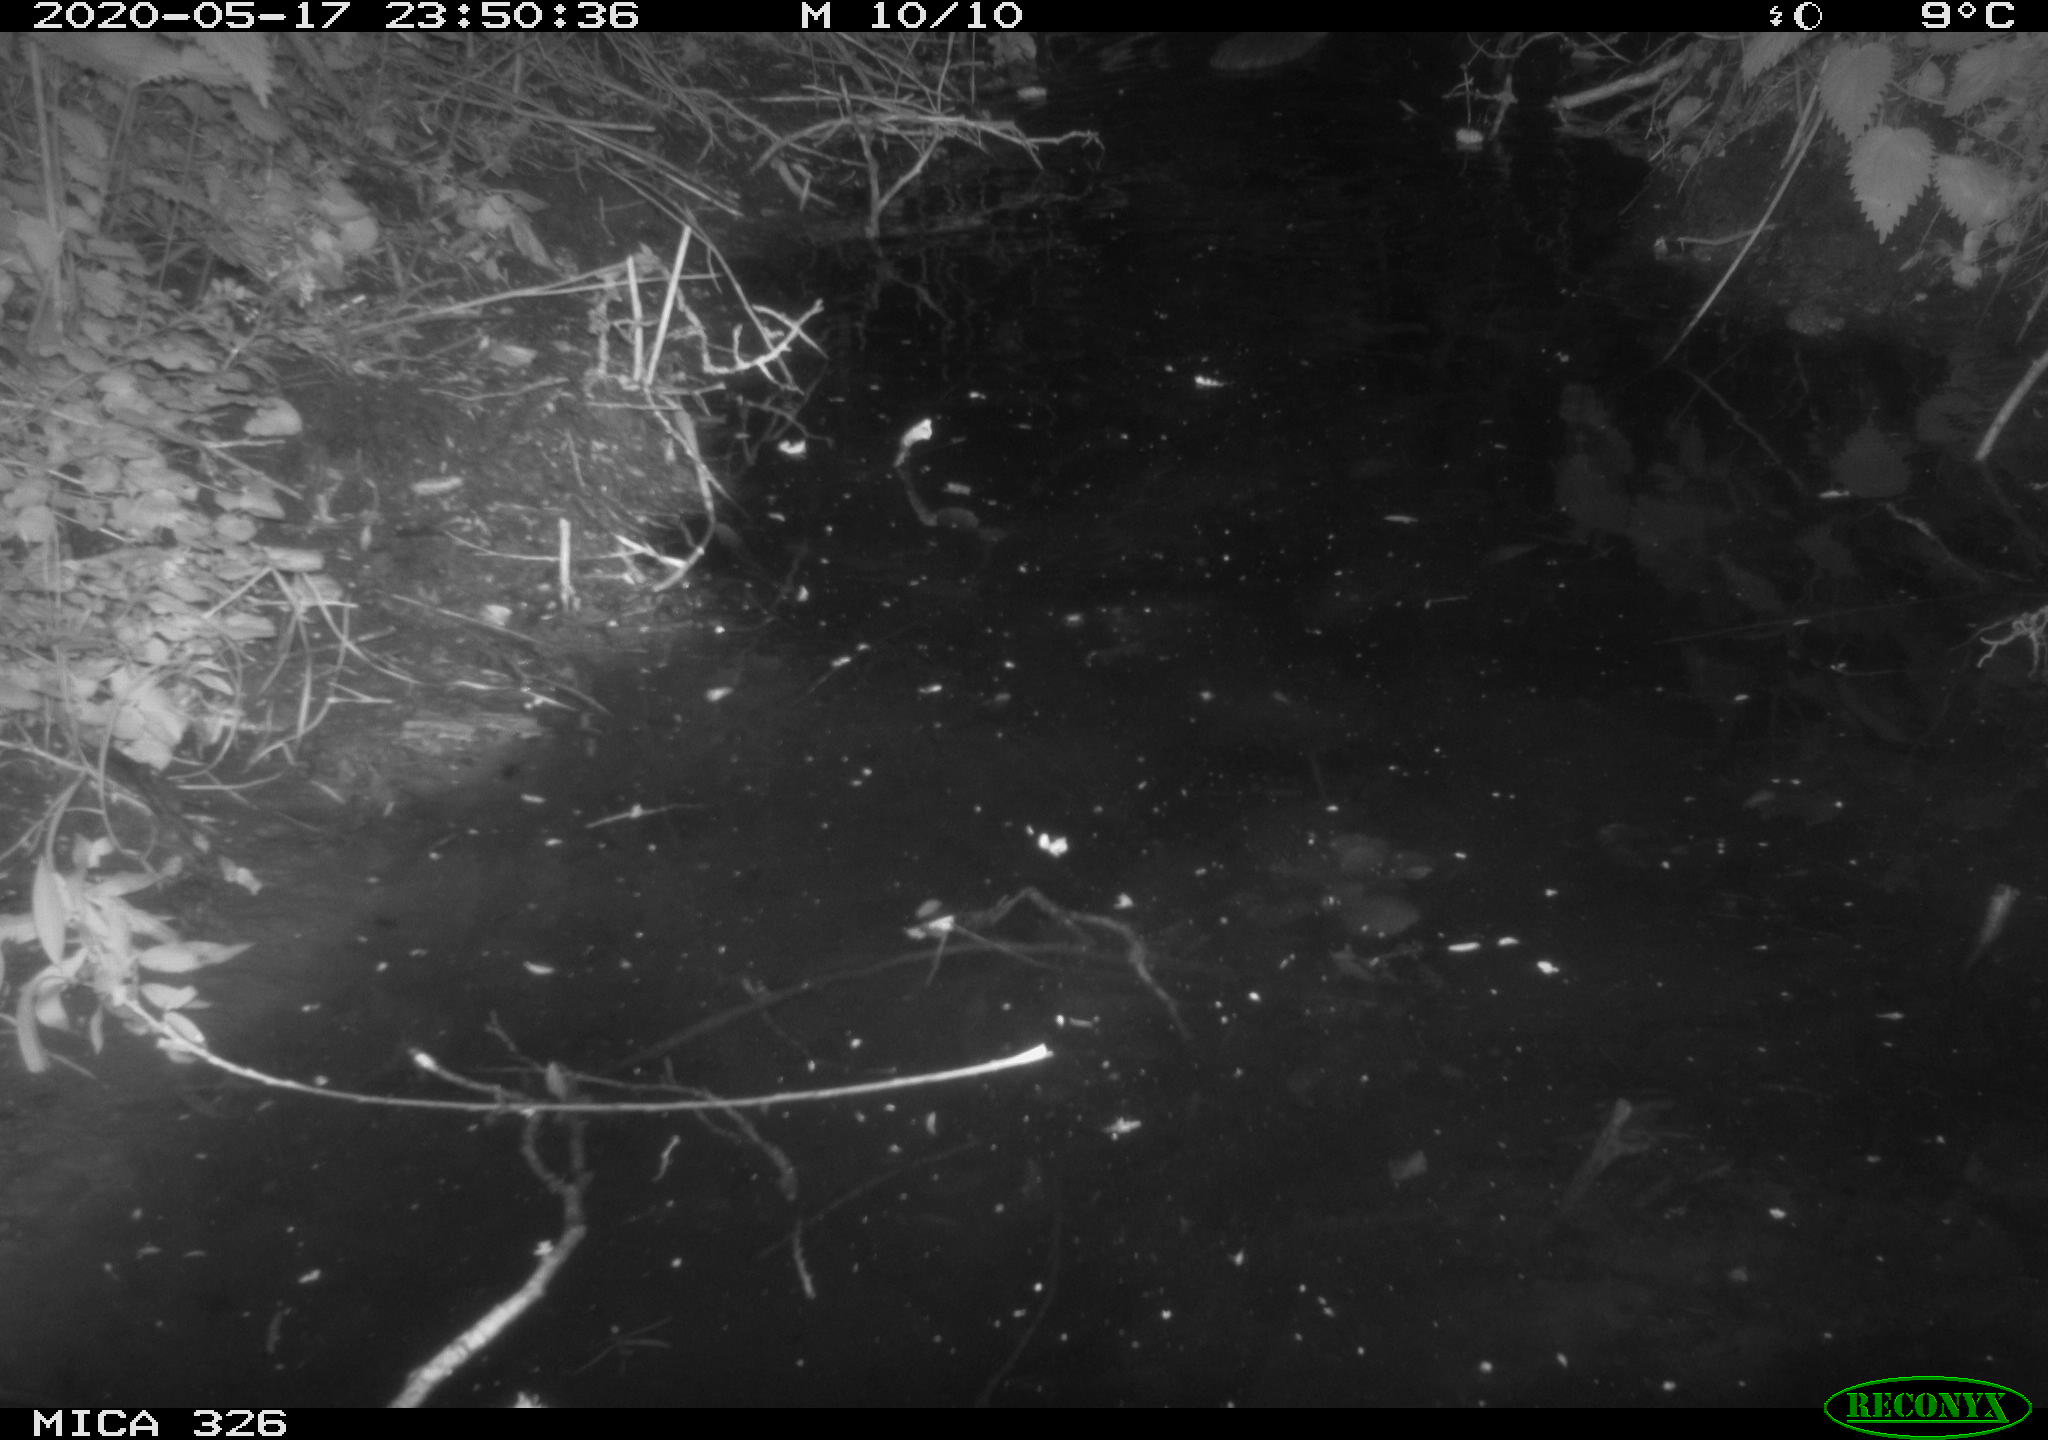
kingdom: Animalia
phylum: Chordata
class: Mammalia
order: Rodentia
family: Myocastoridae
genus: Myocastor
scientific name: Myocastor coypus
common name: Coypu
